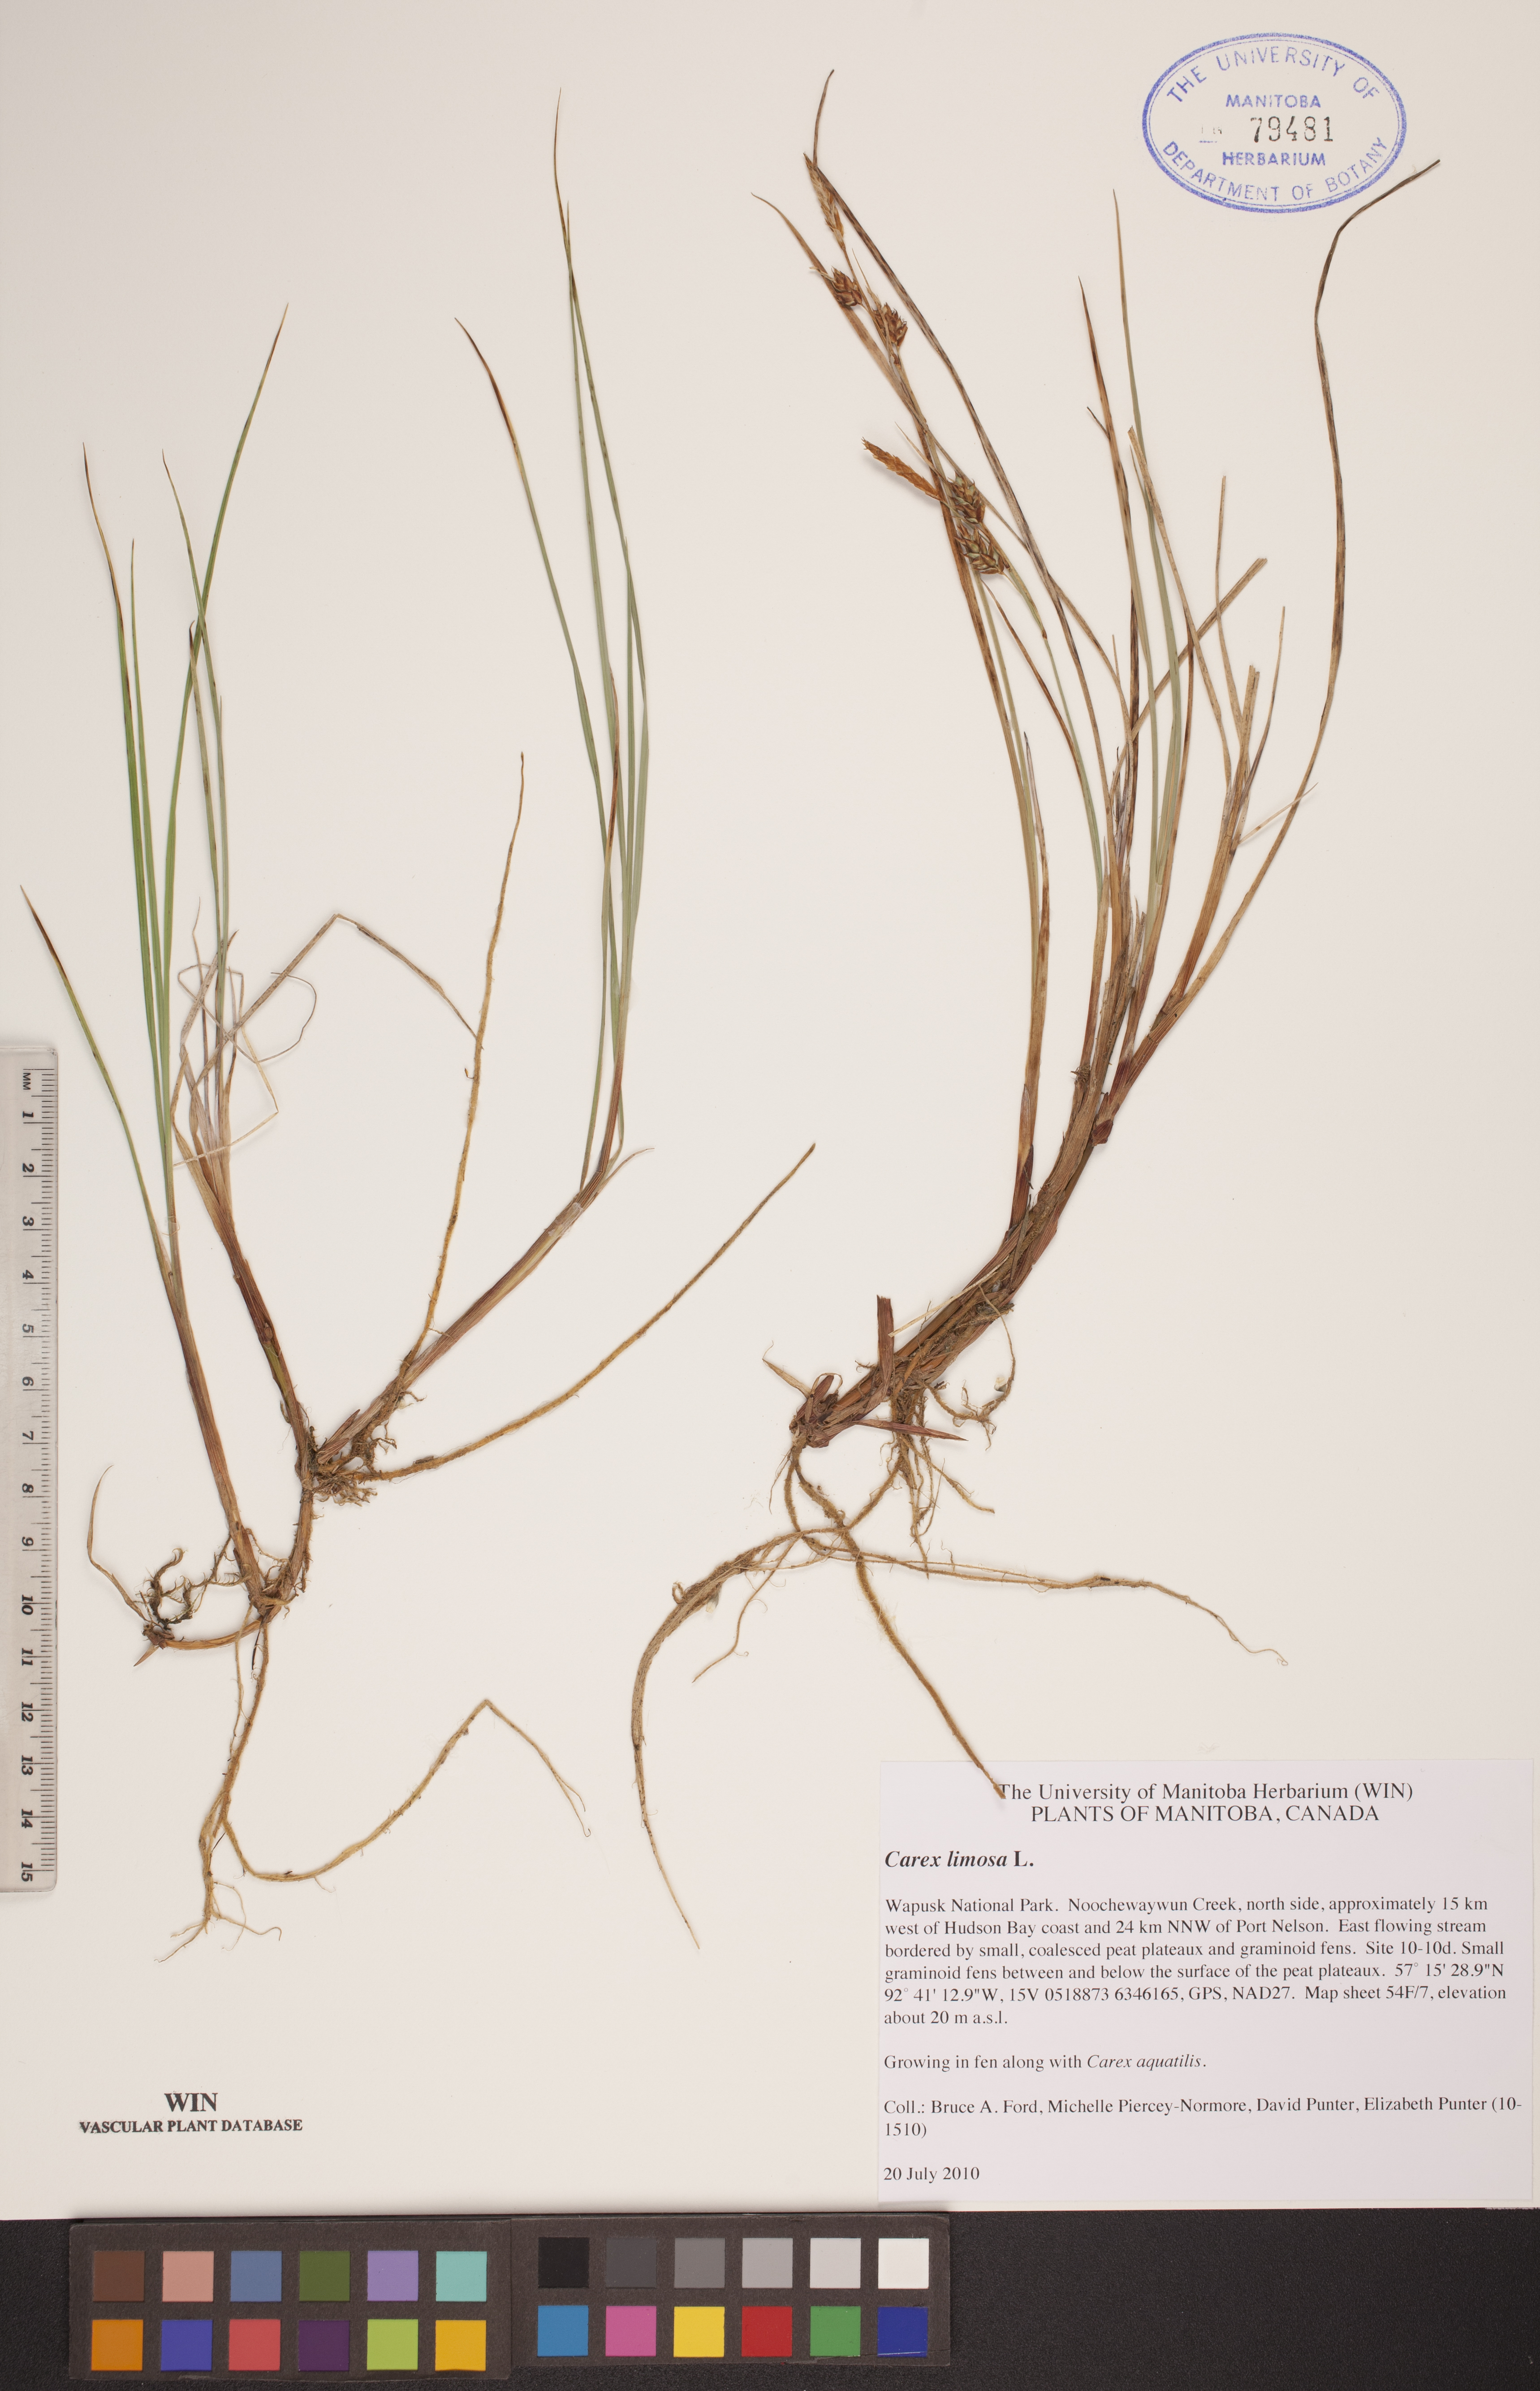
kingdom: Plantae
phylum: Tracheophyta
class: Liliopsida
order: Poales
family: Cyperaceae
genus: Carex
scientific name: Carex limosa
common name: Bog sedge
